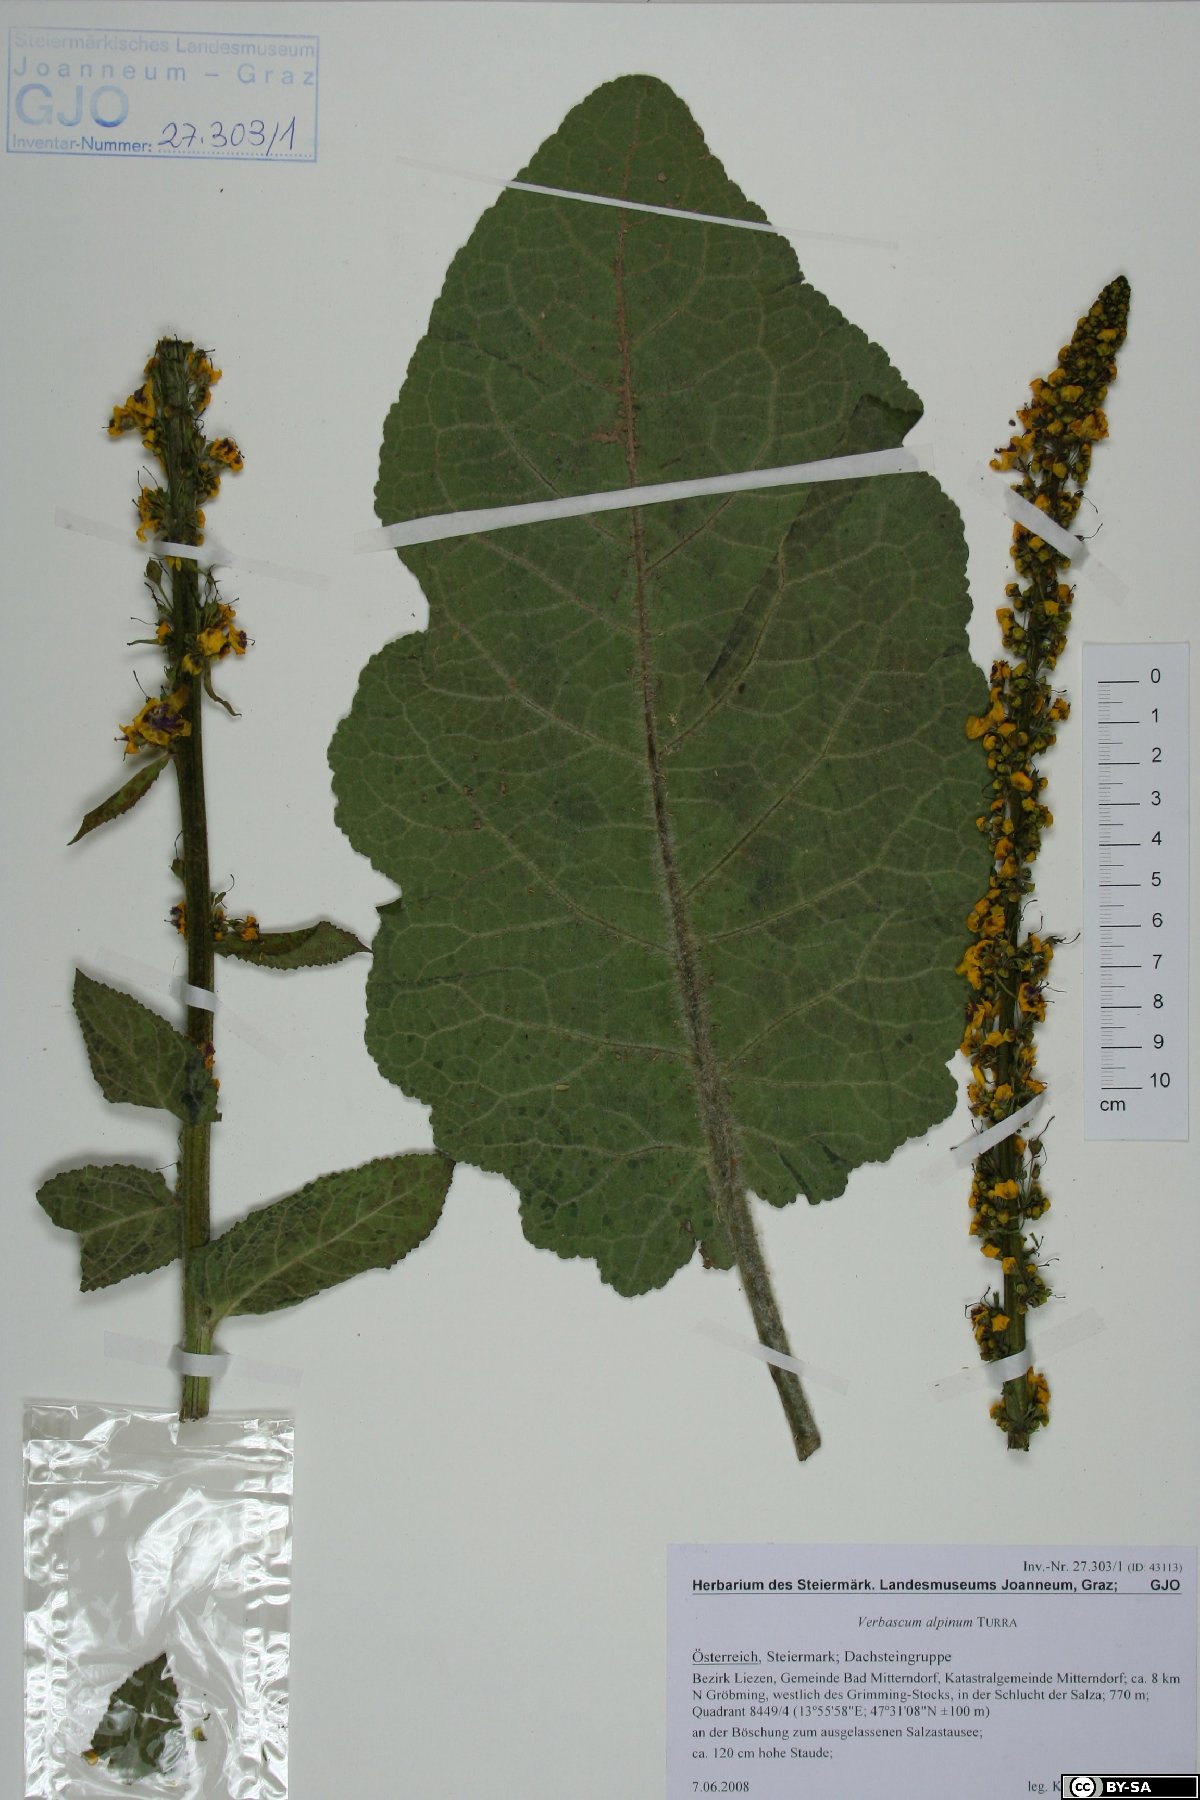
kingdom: Plantae
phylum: Tracheophyta
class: Magnoliopsida
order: Lamiales
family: Scrophulariaceae
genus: Verbascum
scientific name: Verbascum alpinum
